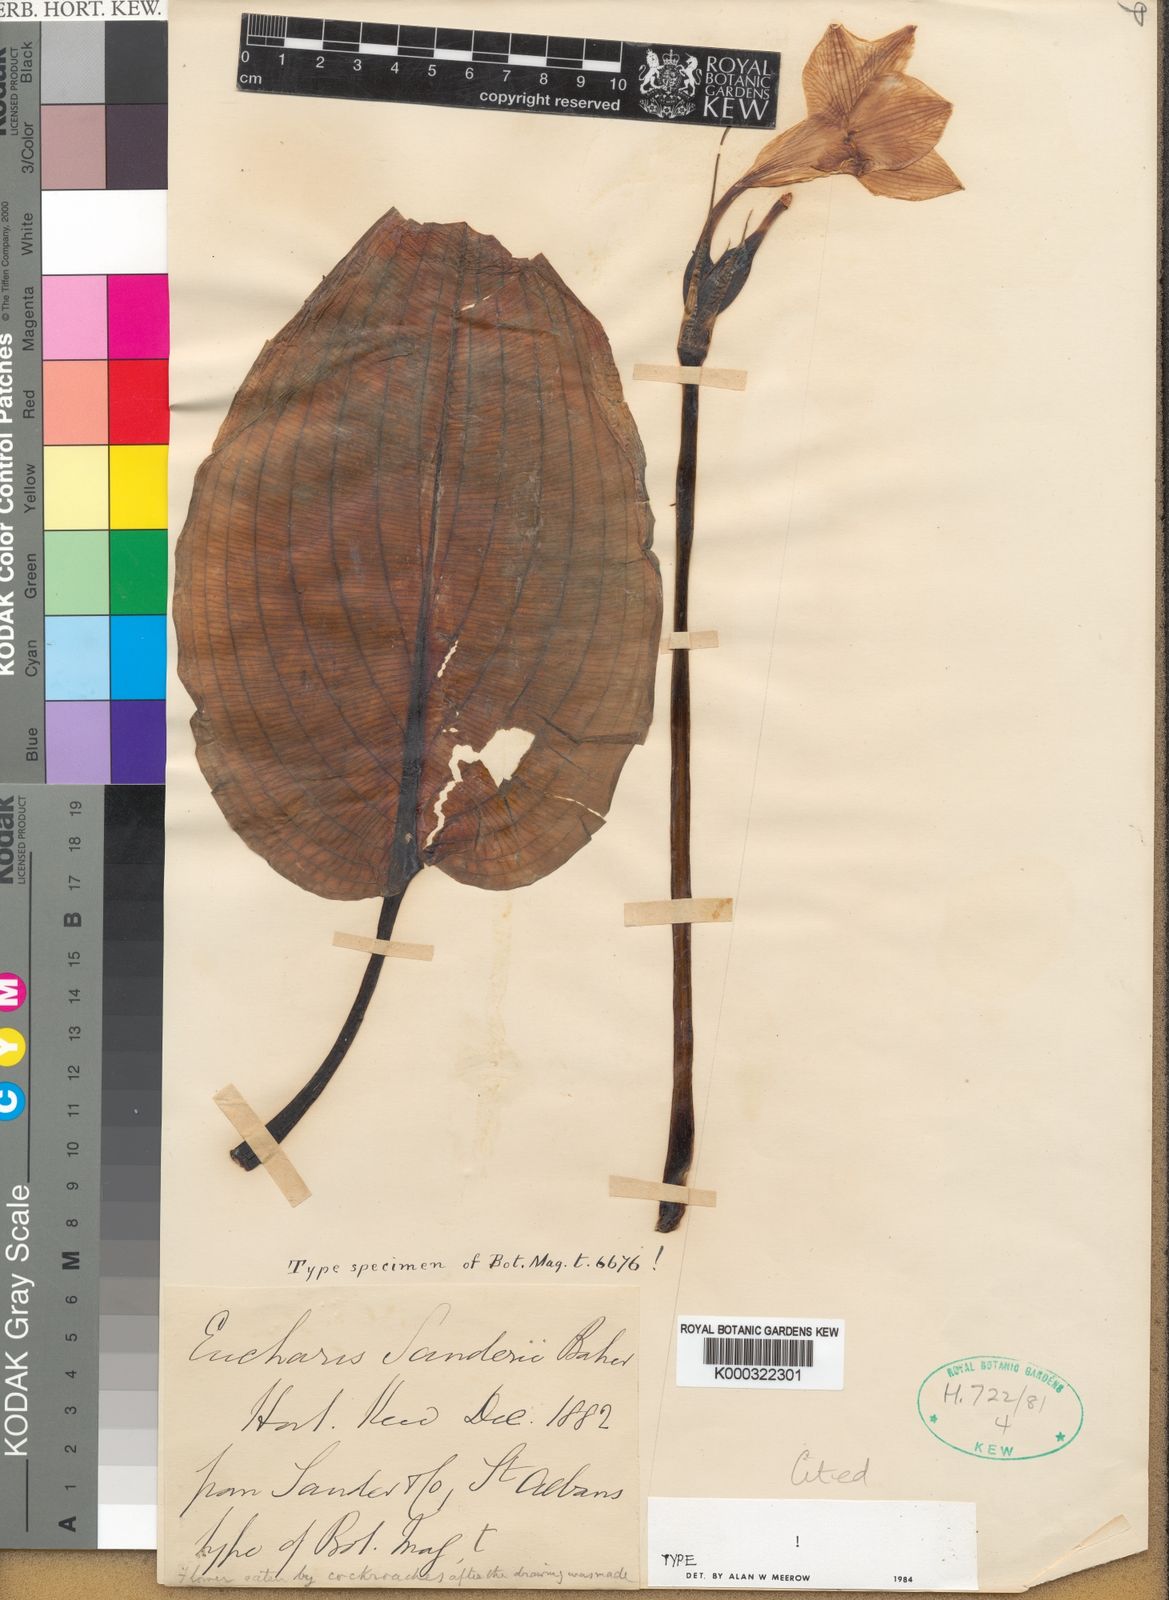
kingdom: Plantae
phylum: Tracheophyta
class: Liliopsida
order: Asparagales
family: Amaryllidaceae
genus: Urceolina
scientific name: Urceolina sanderi
